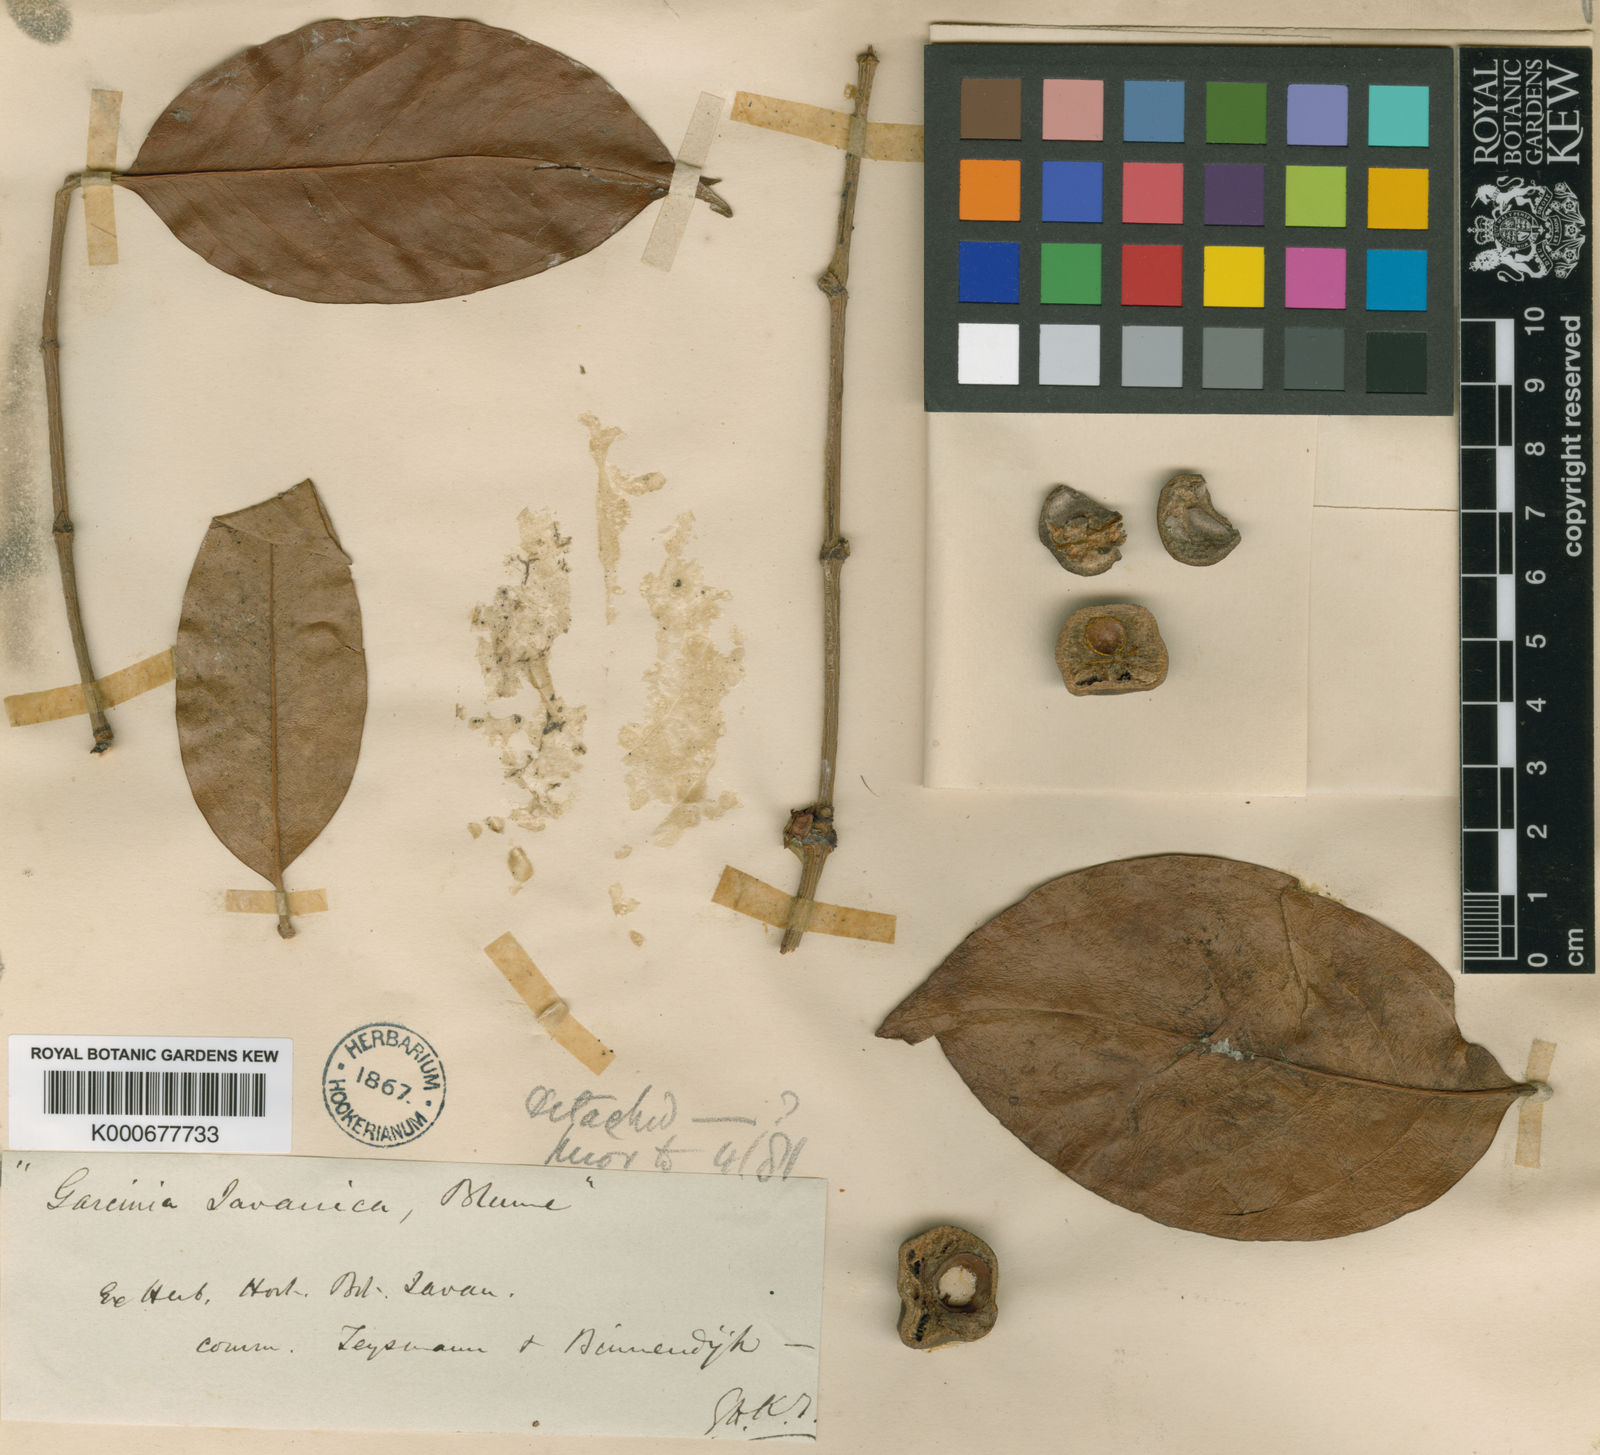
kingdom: Plantae
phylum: Tracheophyta
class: Magnoliopsida
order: Malpighiales
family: Clusiaceae
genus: Garcinia
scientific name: Garcinia lateriflora
